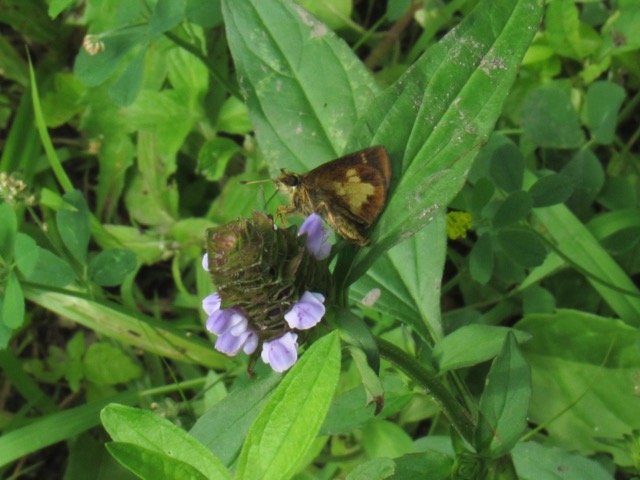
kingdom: Animalia
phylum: Arthropoda
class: Insecta
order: Lepidoptera
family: Hesperiidae
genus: Poanes
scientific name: Poanes massasoit
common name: Mulberry Wing
